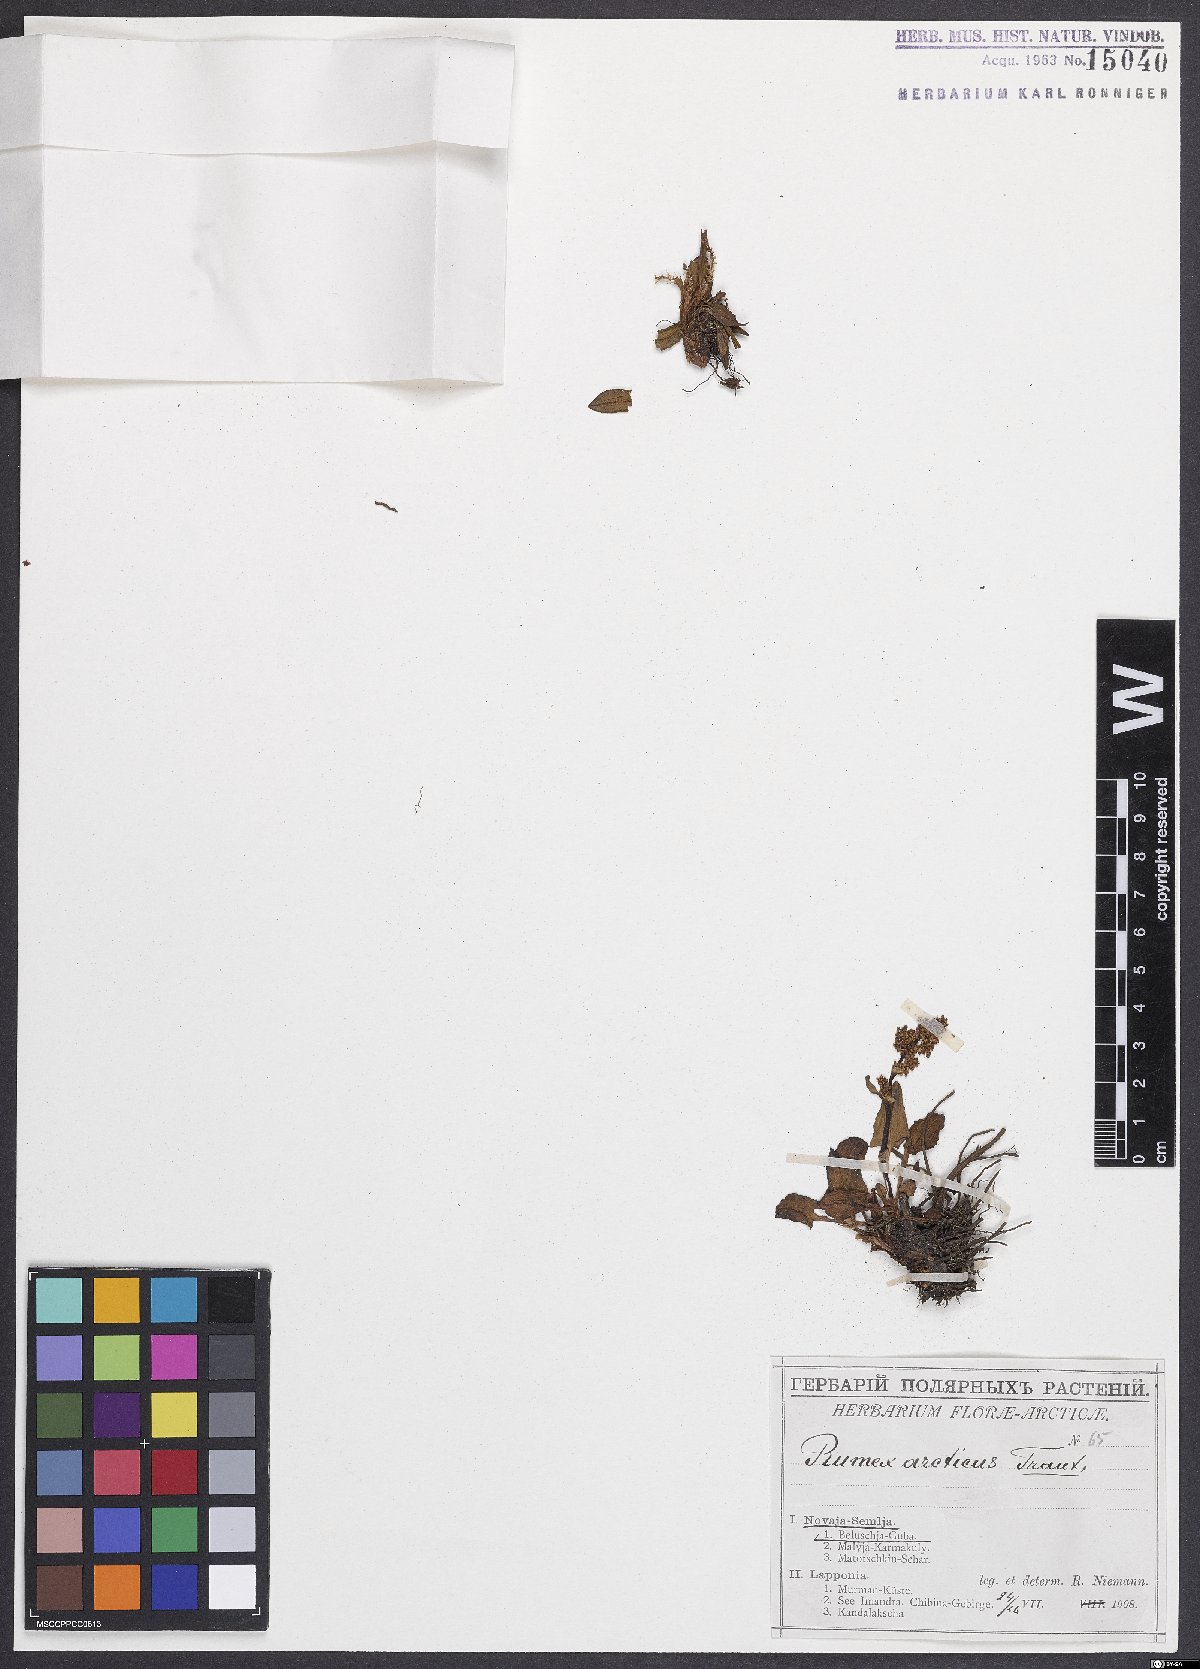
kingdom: Plantae
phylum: Tracheophyta
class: Magnoliopsida
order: Caryophyllales
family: Polygonaceae
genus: Rumex
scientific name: Rumex arcticus
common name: Arctic dock
